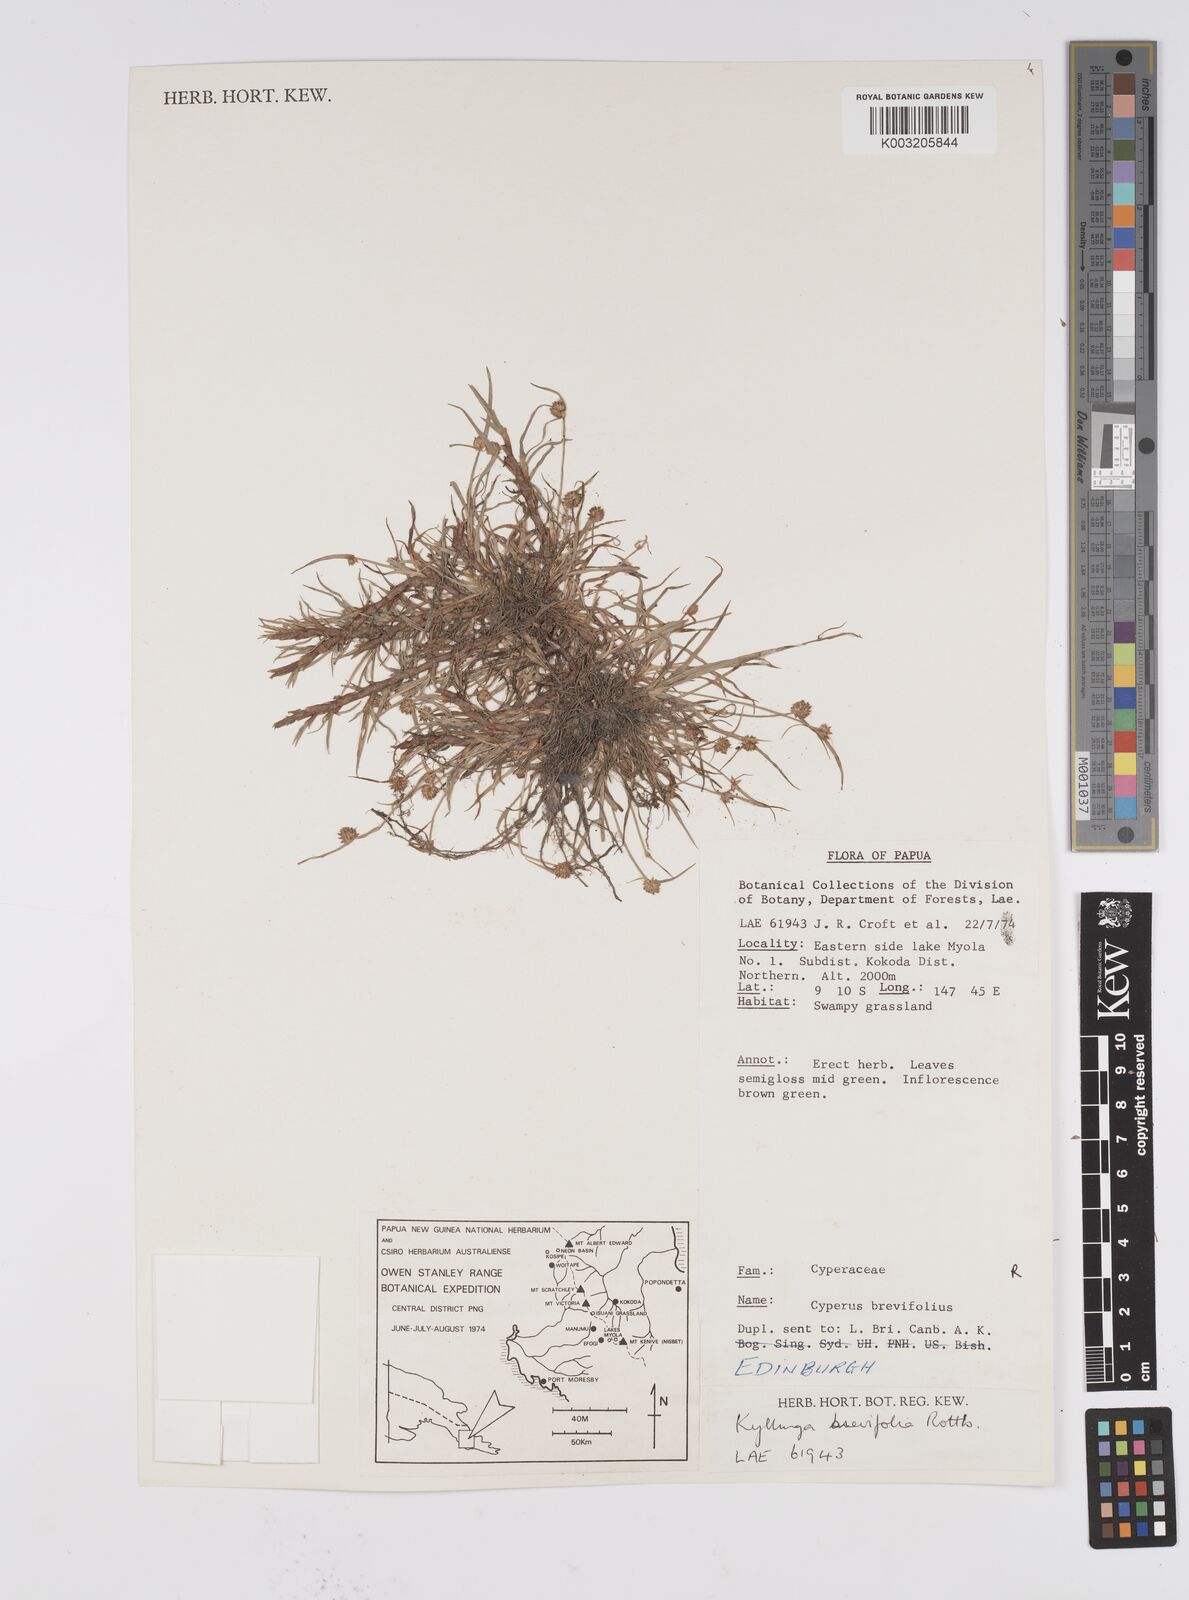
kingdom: Plantae
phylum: Tracheophyta
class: Liliopsida
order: Poales
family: Cyperaceae
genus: Cyperus
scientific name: Cyperus brevifolius
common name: Globe kyllinga
